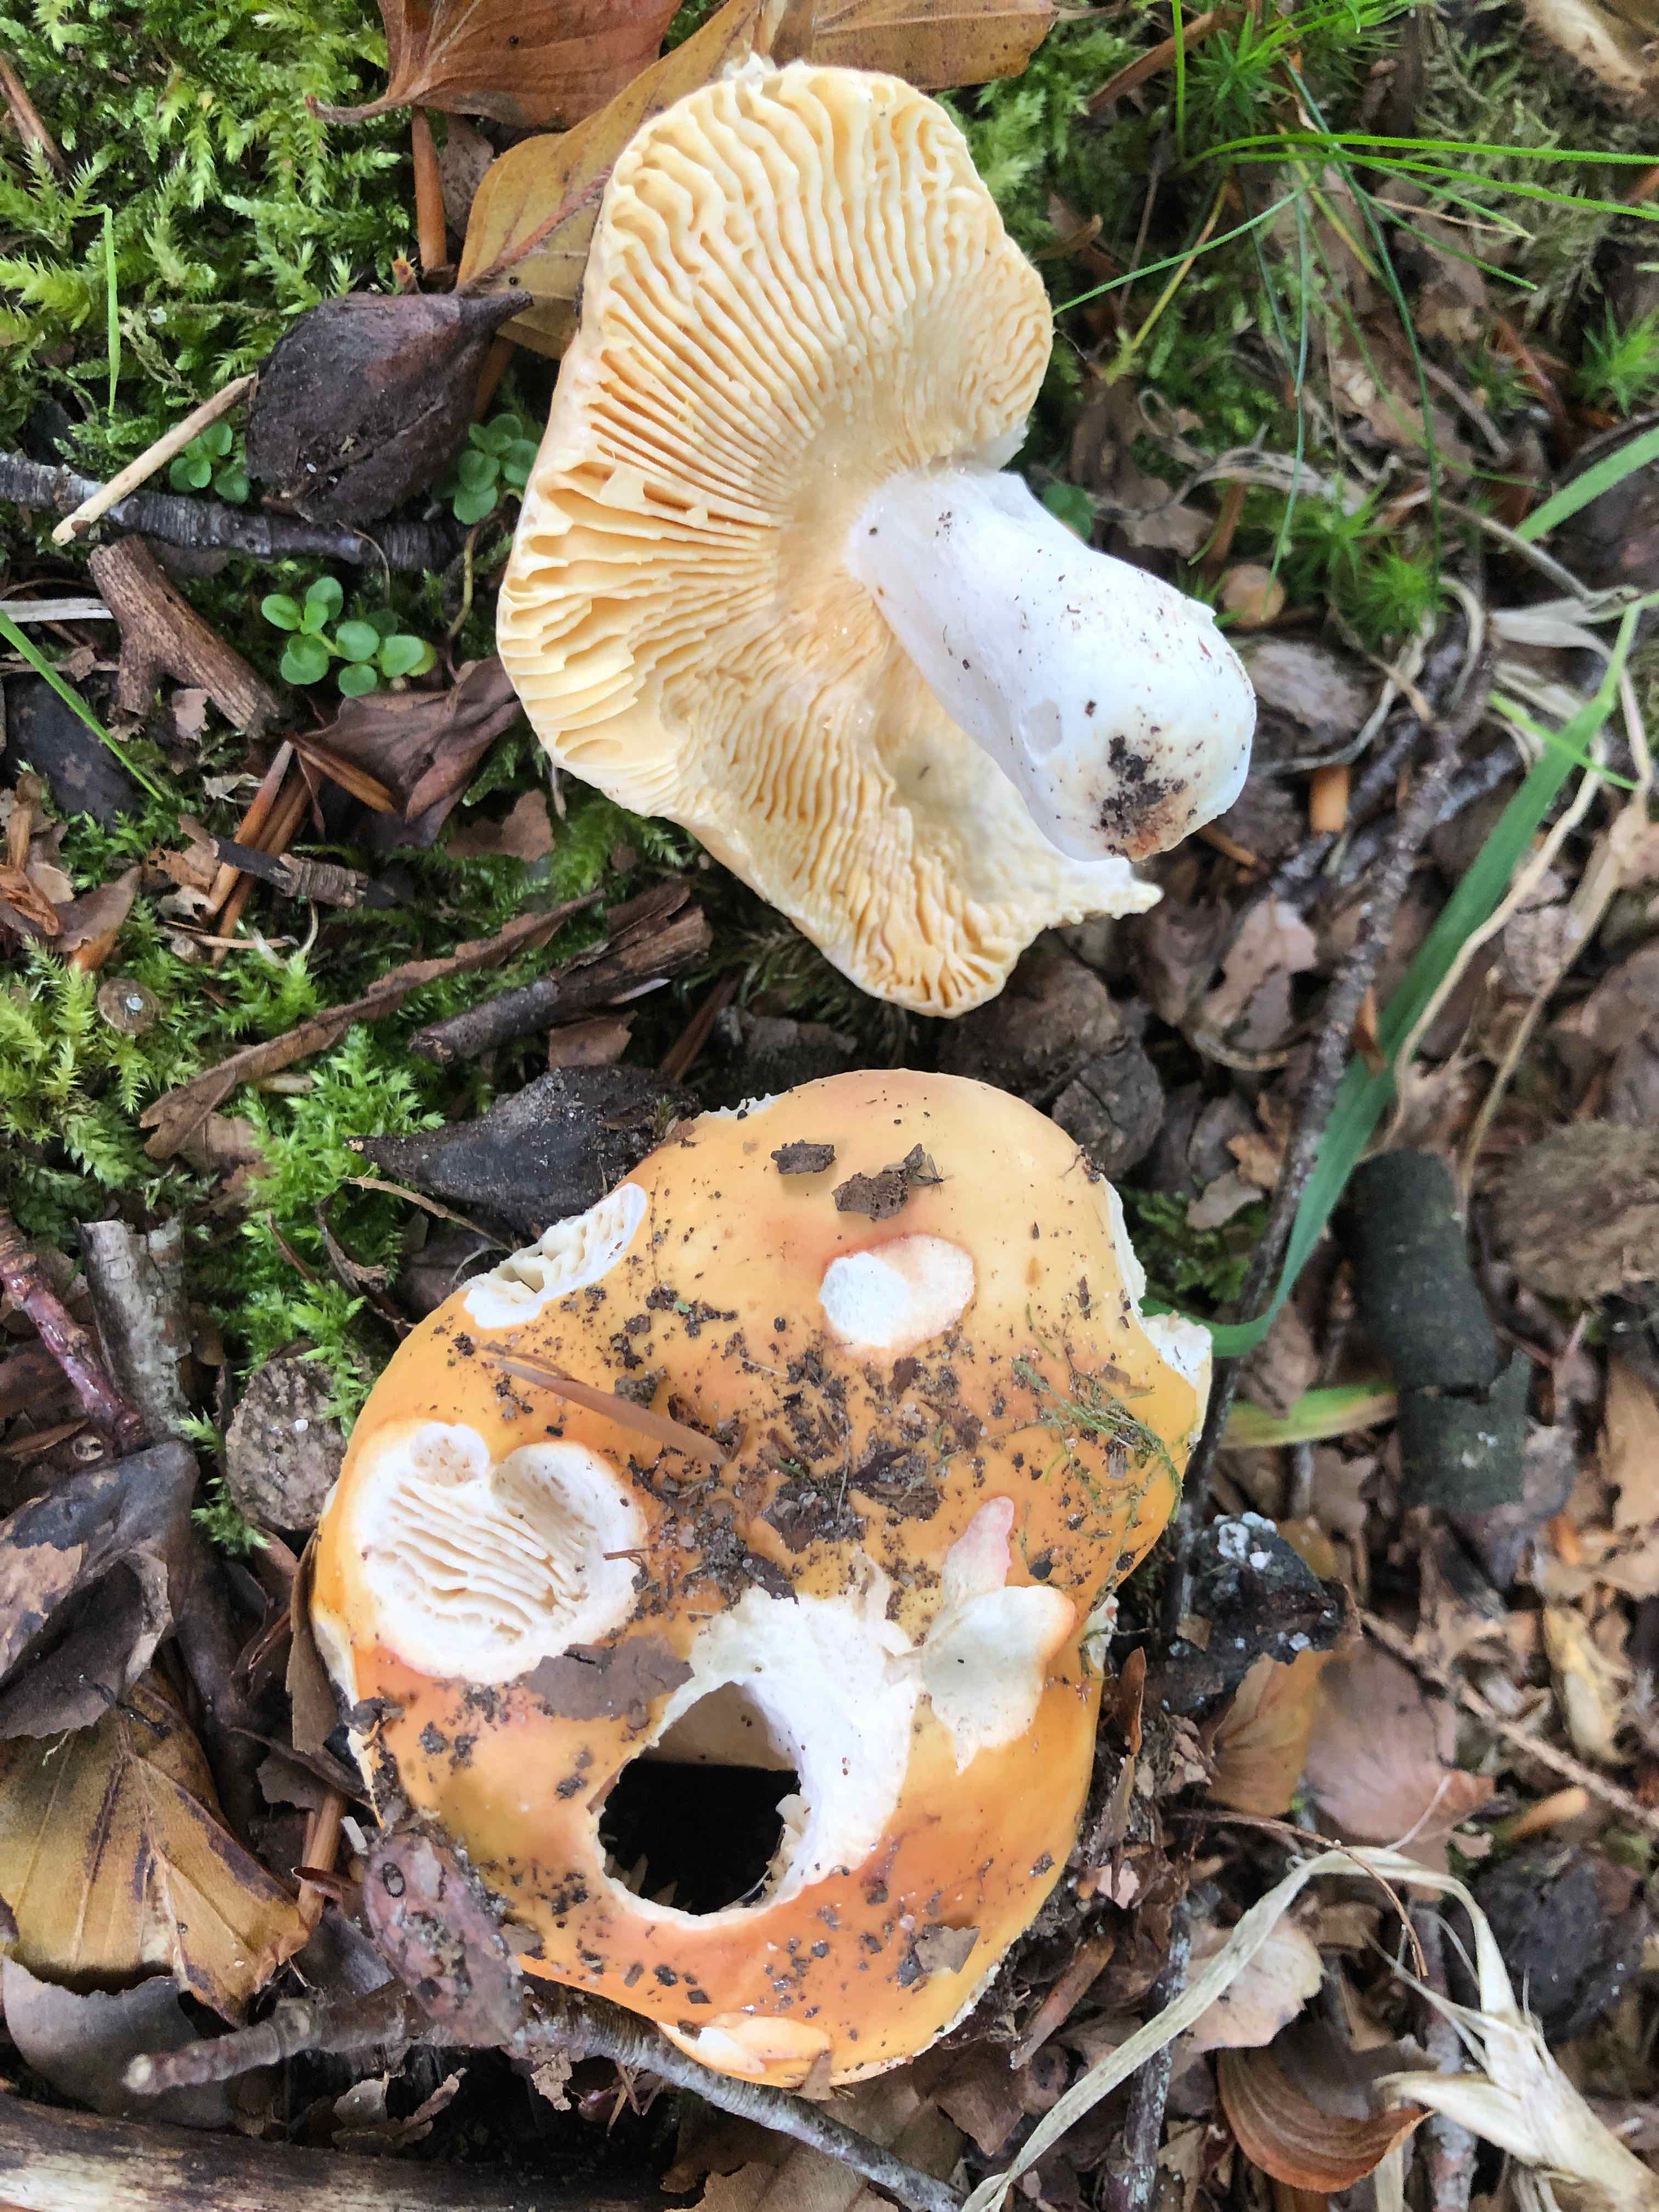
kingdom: Fungi
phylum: Basidiomycota
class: Agaricomycetes
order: Russulales
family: Russulaceae
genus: Russula
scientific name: Russula risigallina
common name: abrikos-skørhat
